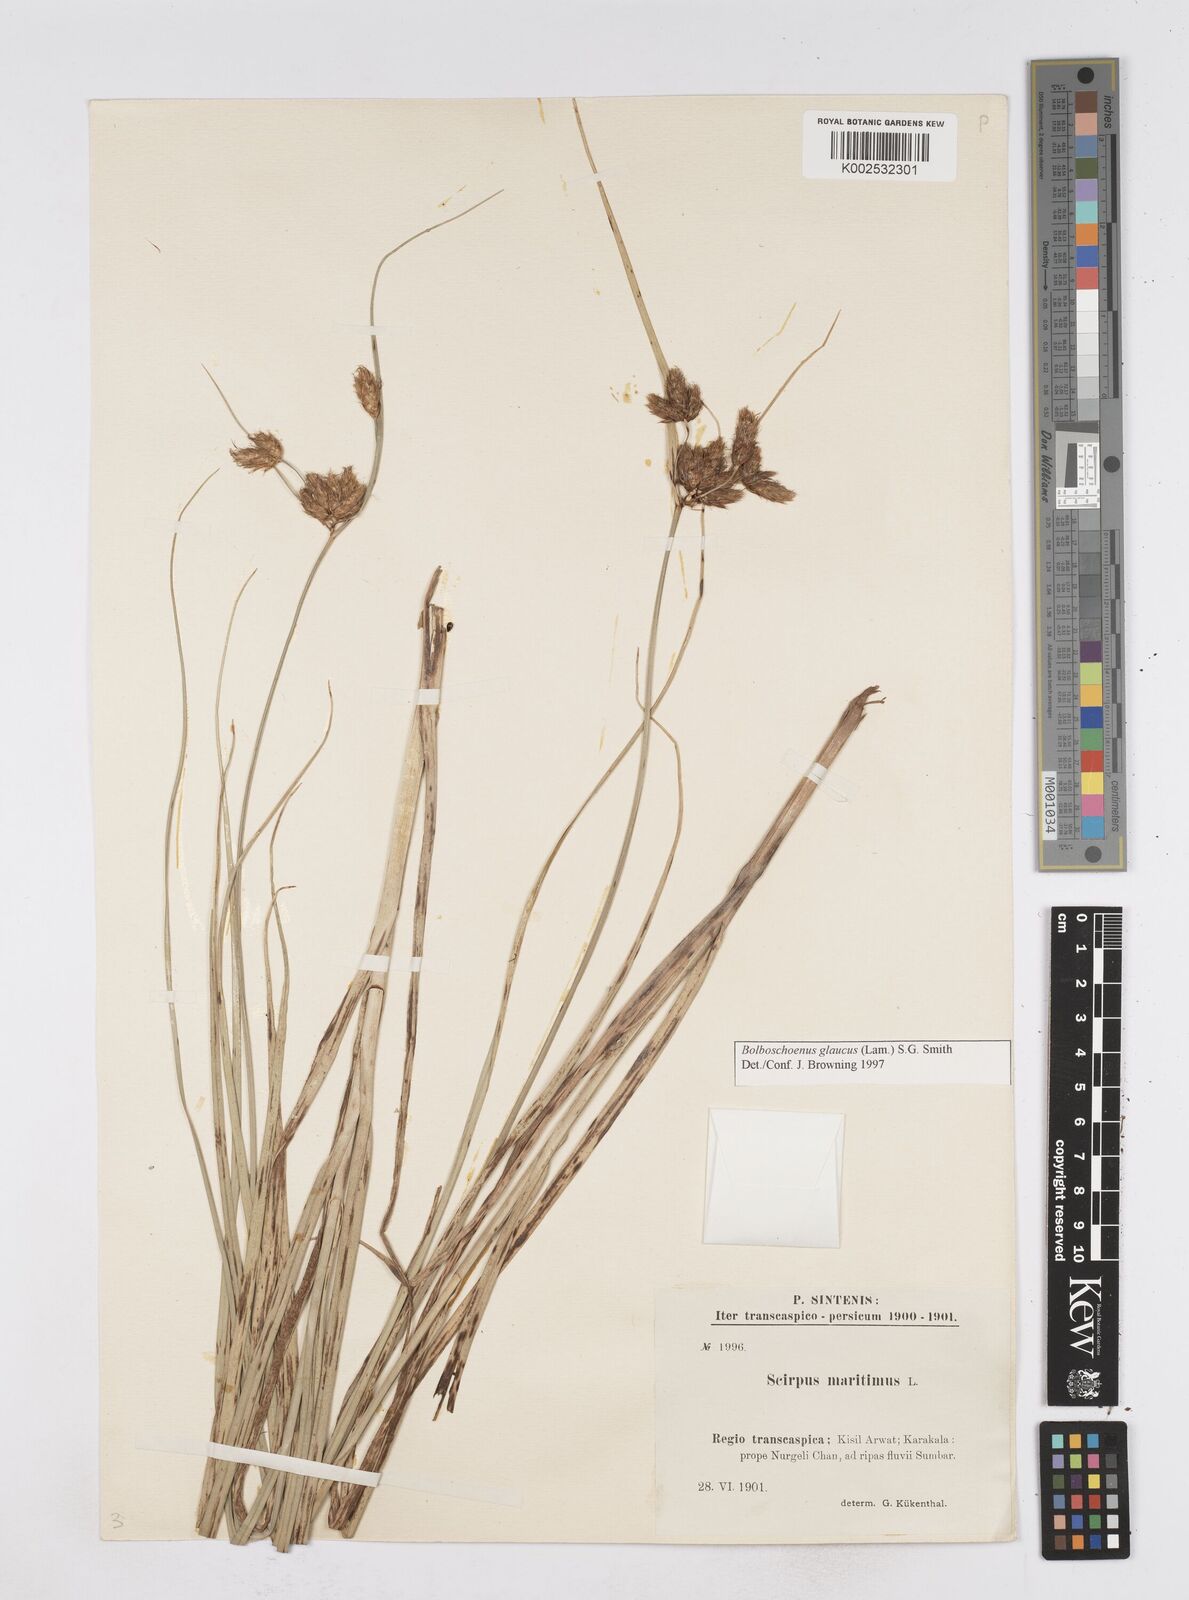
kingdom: Plantae
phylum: Tracheophyta
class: Liliopsida
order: Poales
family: Cyperaceae
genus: Bolboschoenus
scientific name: Bolboschoenus maritimus
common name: Sea club-rush
